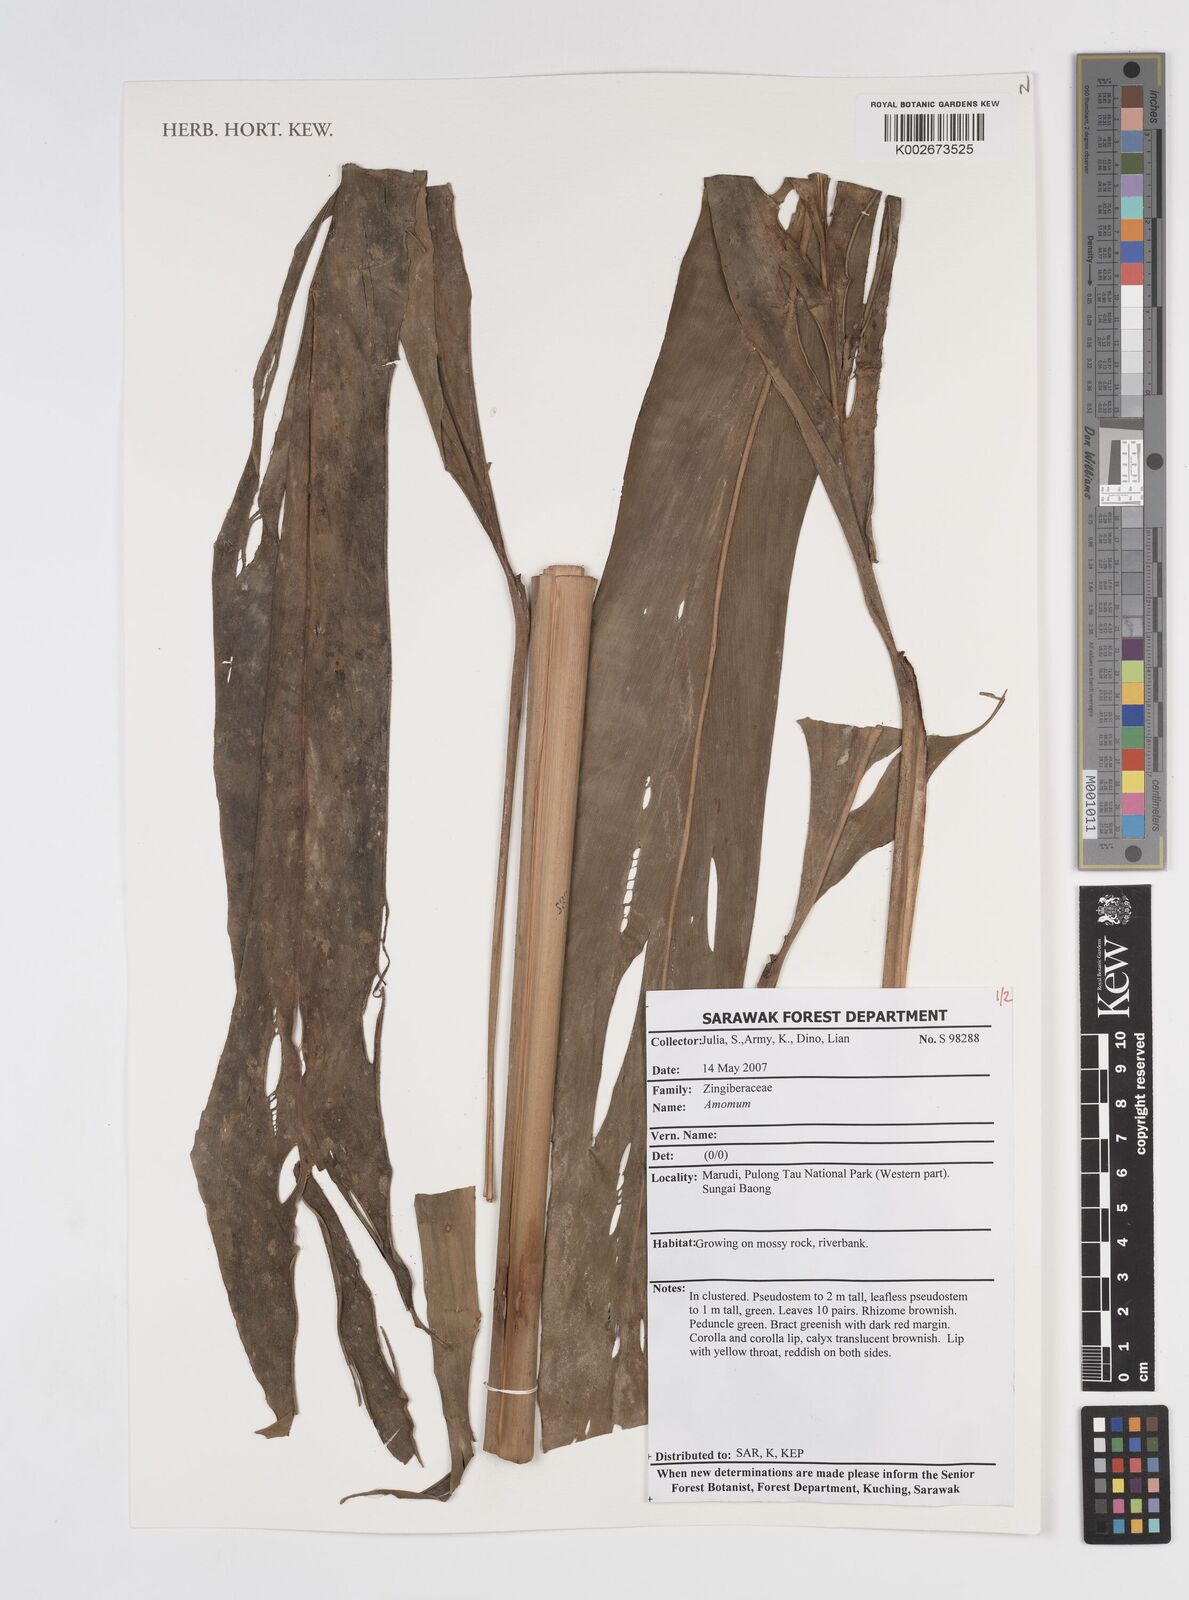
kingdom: Plantae
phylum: Tracheophyta
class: Liliopsida
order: Zingiberales
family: Zingiberaceae
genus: Amomum
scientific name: Amomum
